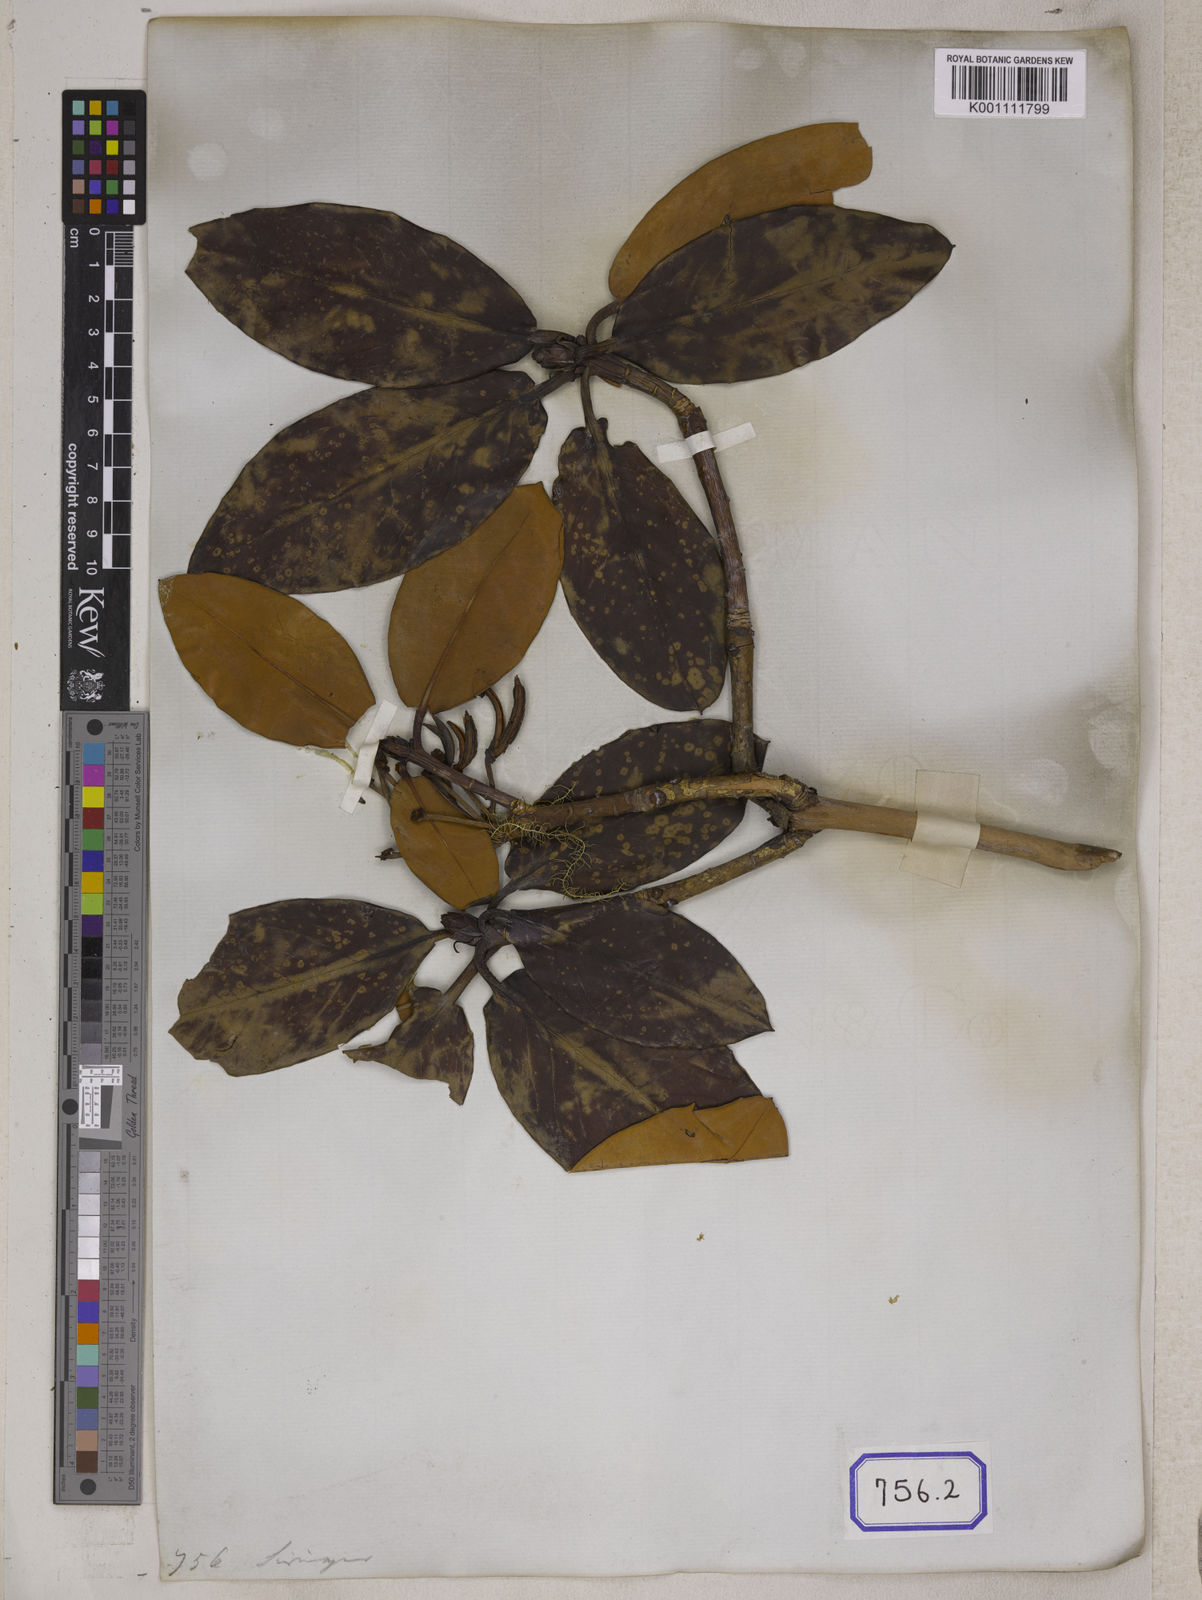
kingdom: Plantae
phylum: Tracheophyta
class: Magnoliopsida
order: Ericales
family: Ericaceae
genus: Rhododendron
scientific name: Rhododendron campanulatum
